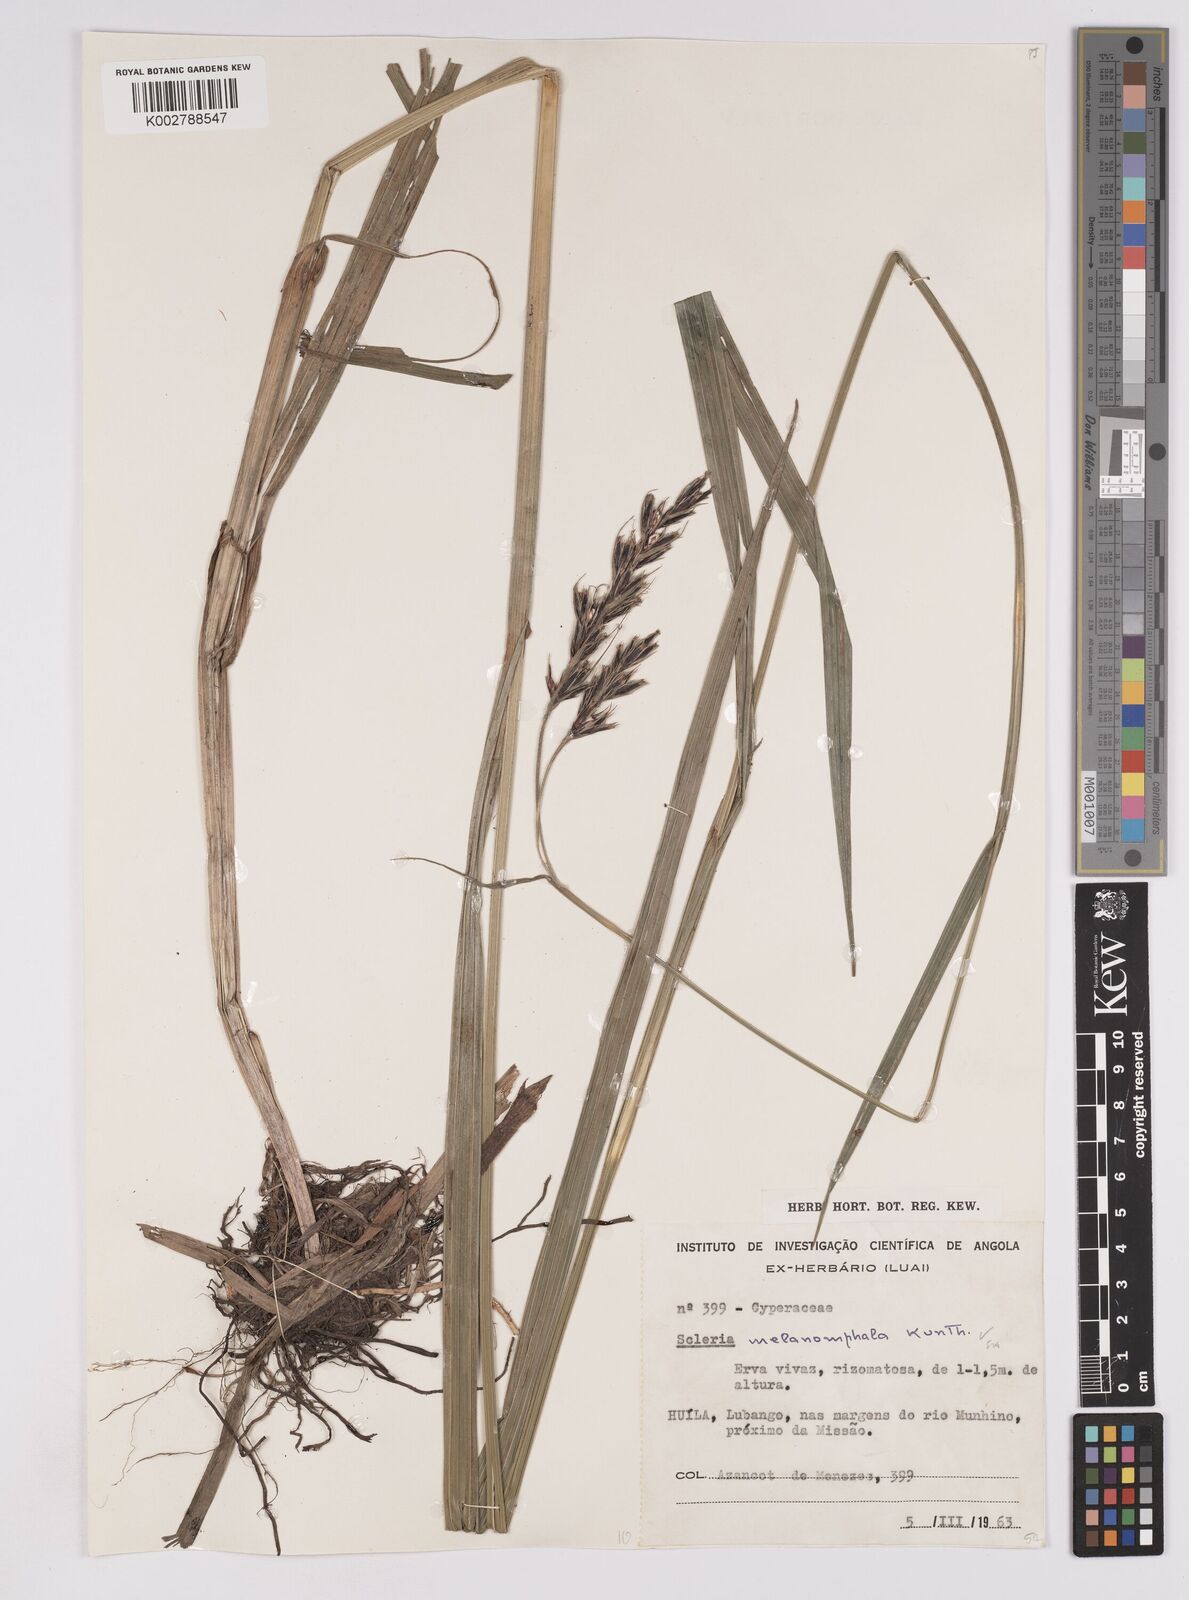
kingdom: Plantae
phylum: Tracheophyta
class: Liliopsida
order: Poales
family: Cyperaceae
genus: Scleria
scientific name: Scleria melanomphala
